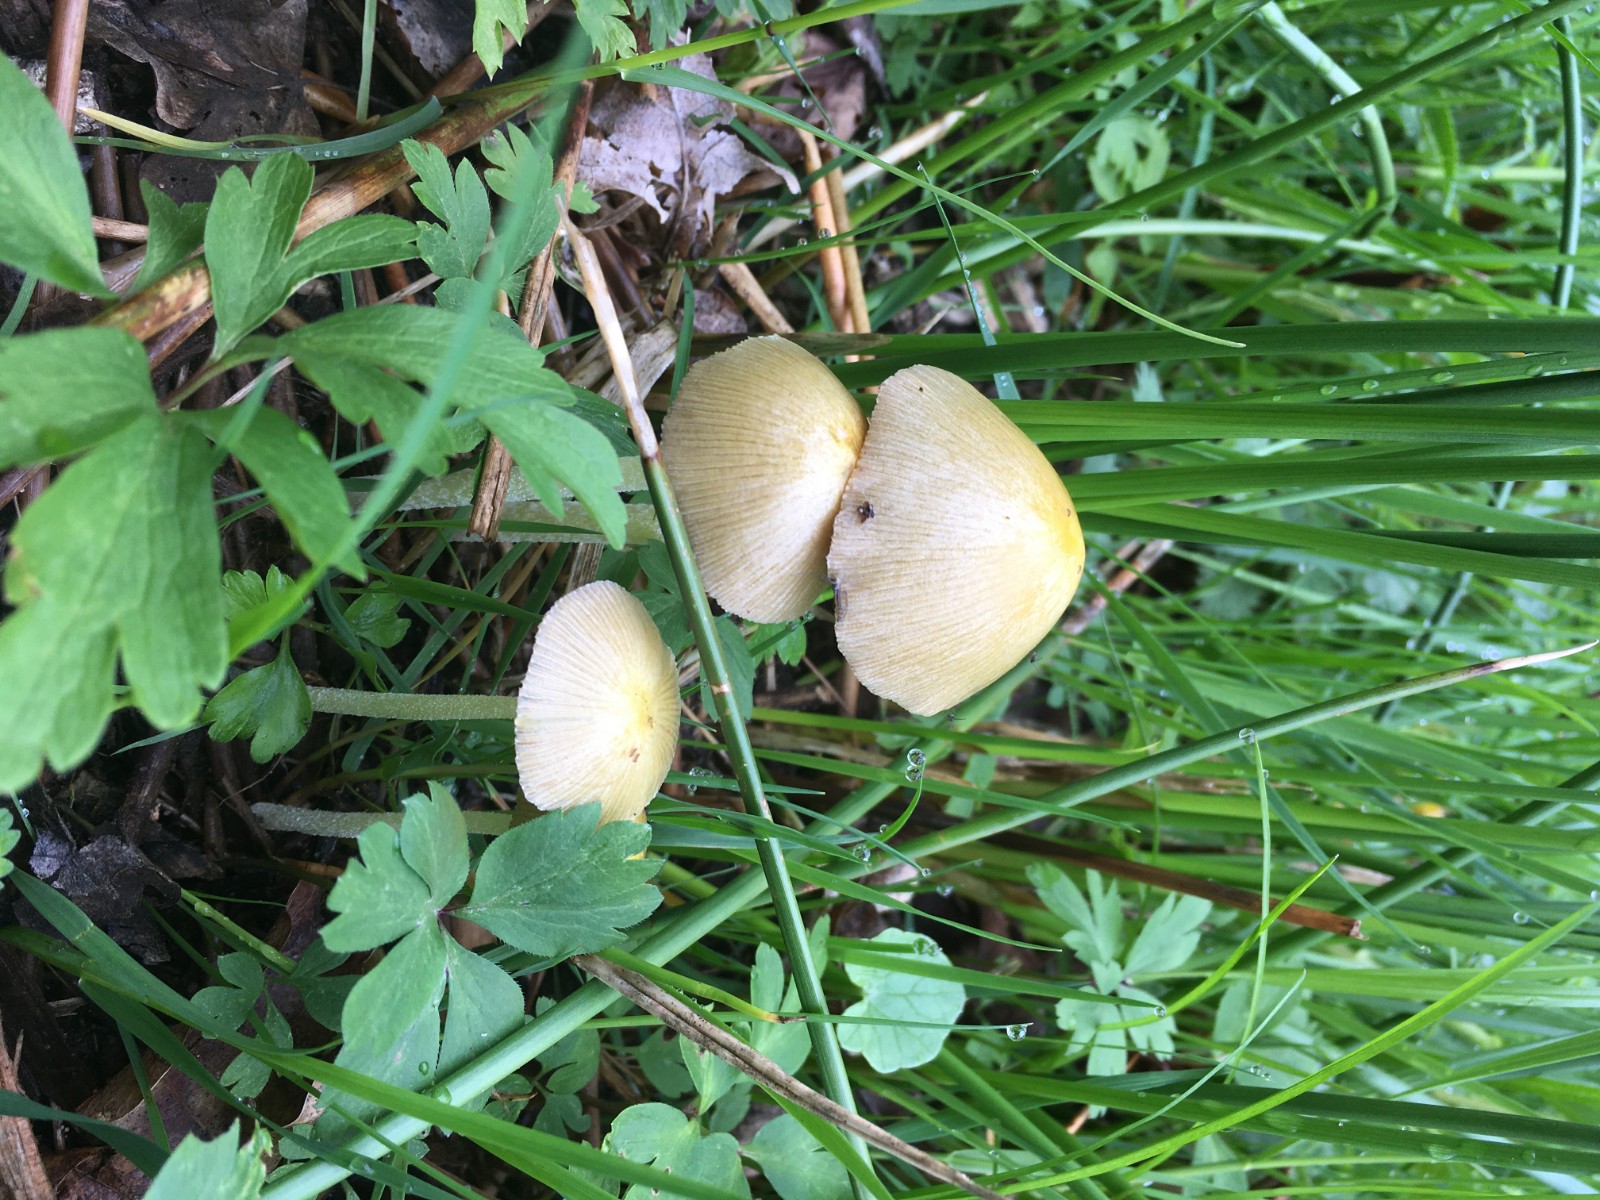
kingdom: Fungi
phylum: Basidiomycota
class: Agaricomycetes
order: Agaricales
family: Bolbitiaceae
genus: Bolbitius
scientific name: Bolbitius titubans
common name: almindelig gulhat
